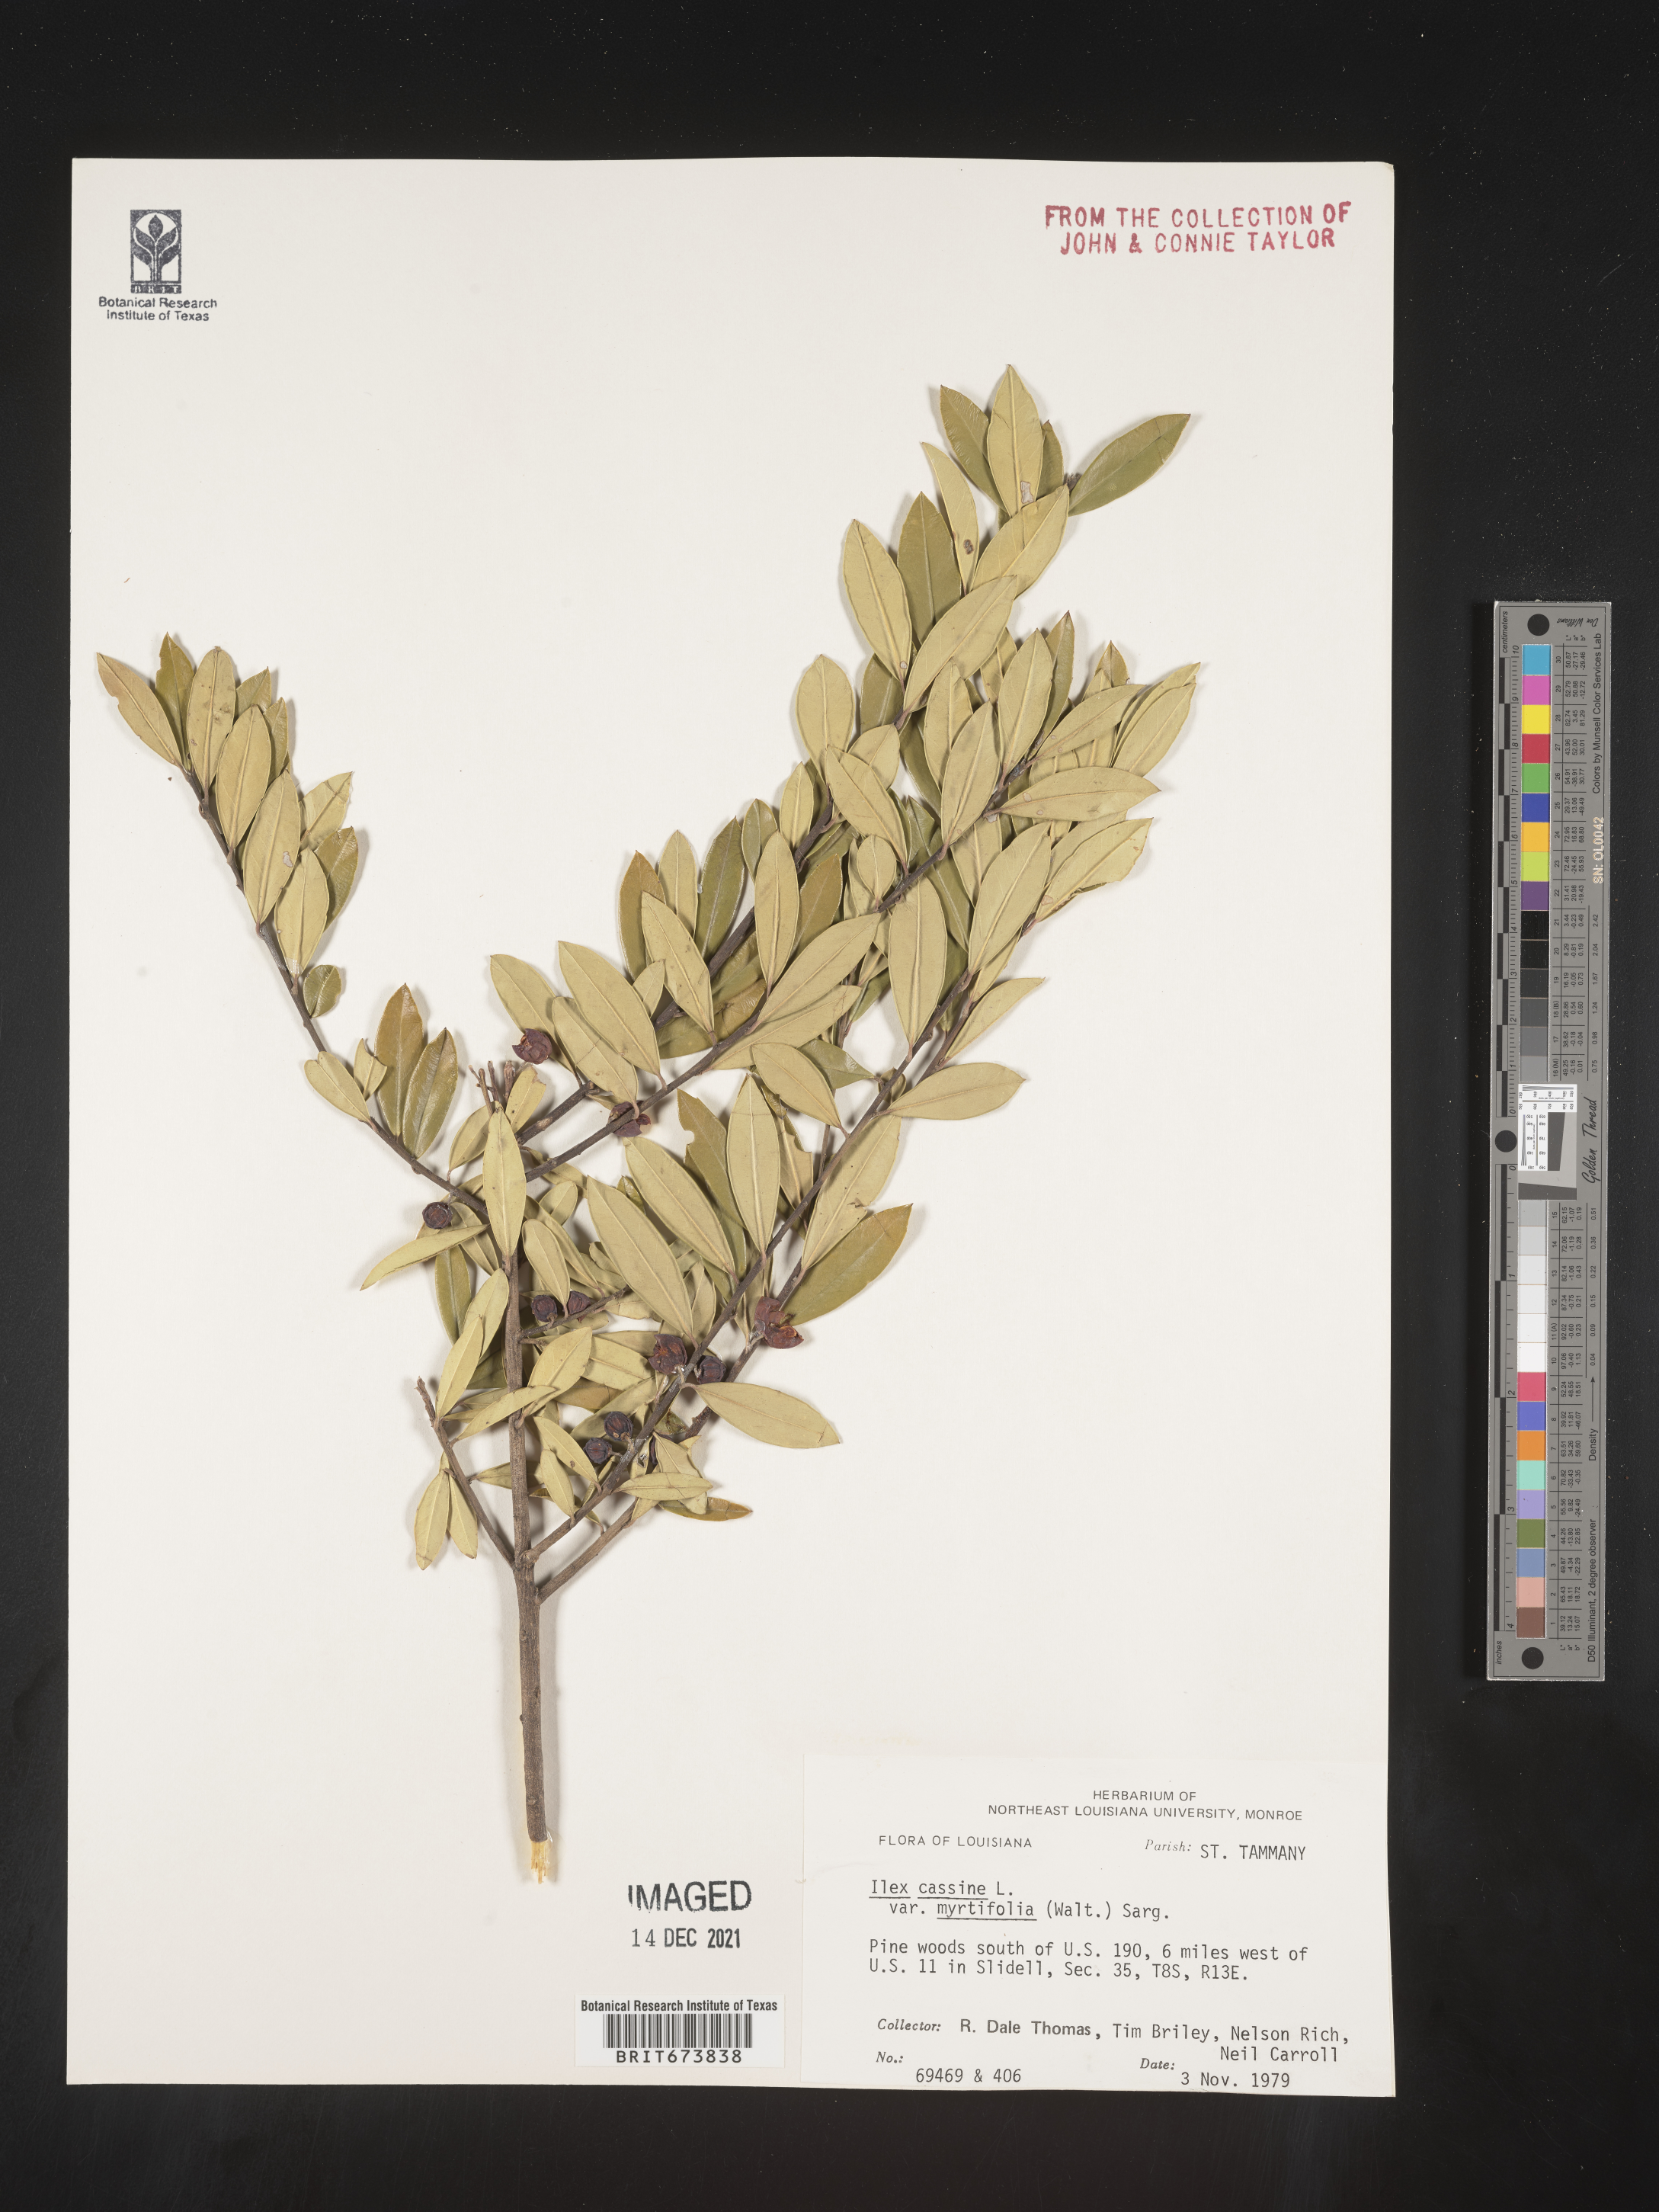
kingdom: Plantae
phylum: Tracheophyta
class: Magnoliopsida
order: Aquifoliales
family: Aquifoliaceae
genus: Ilex
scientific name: Ilex myrtifolia
